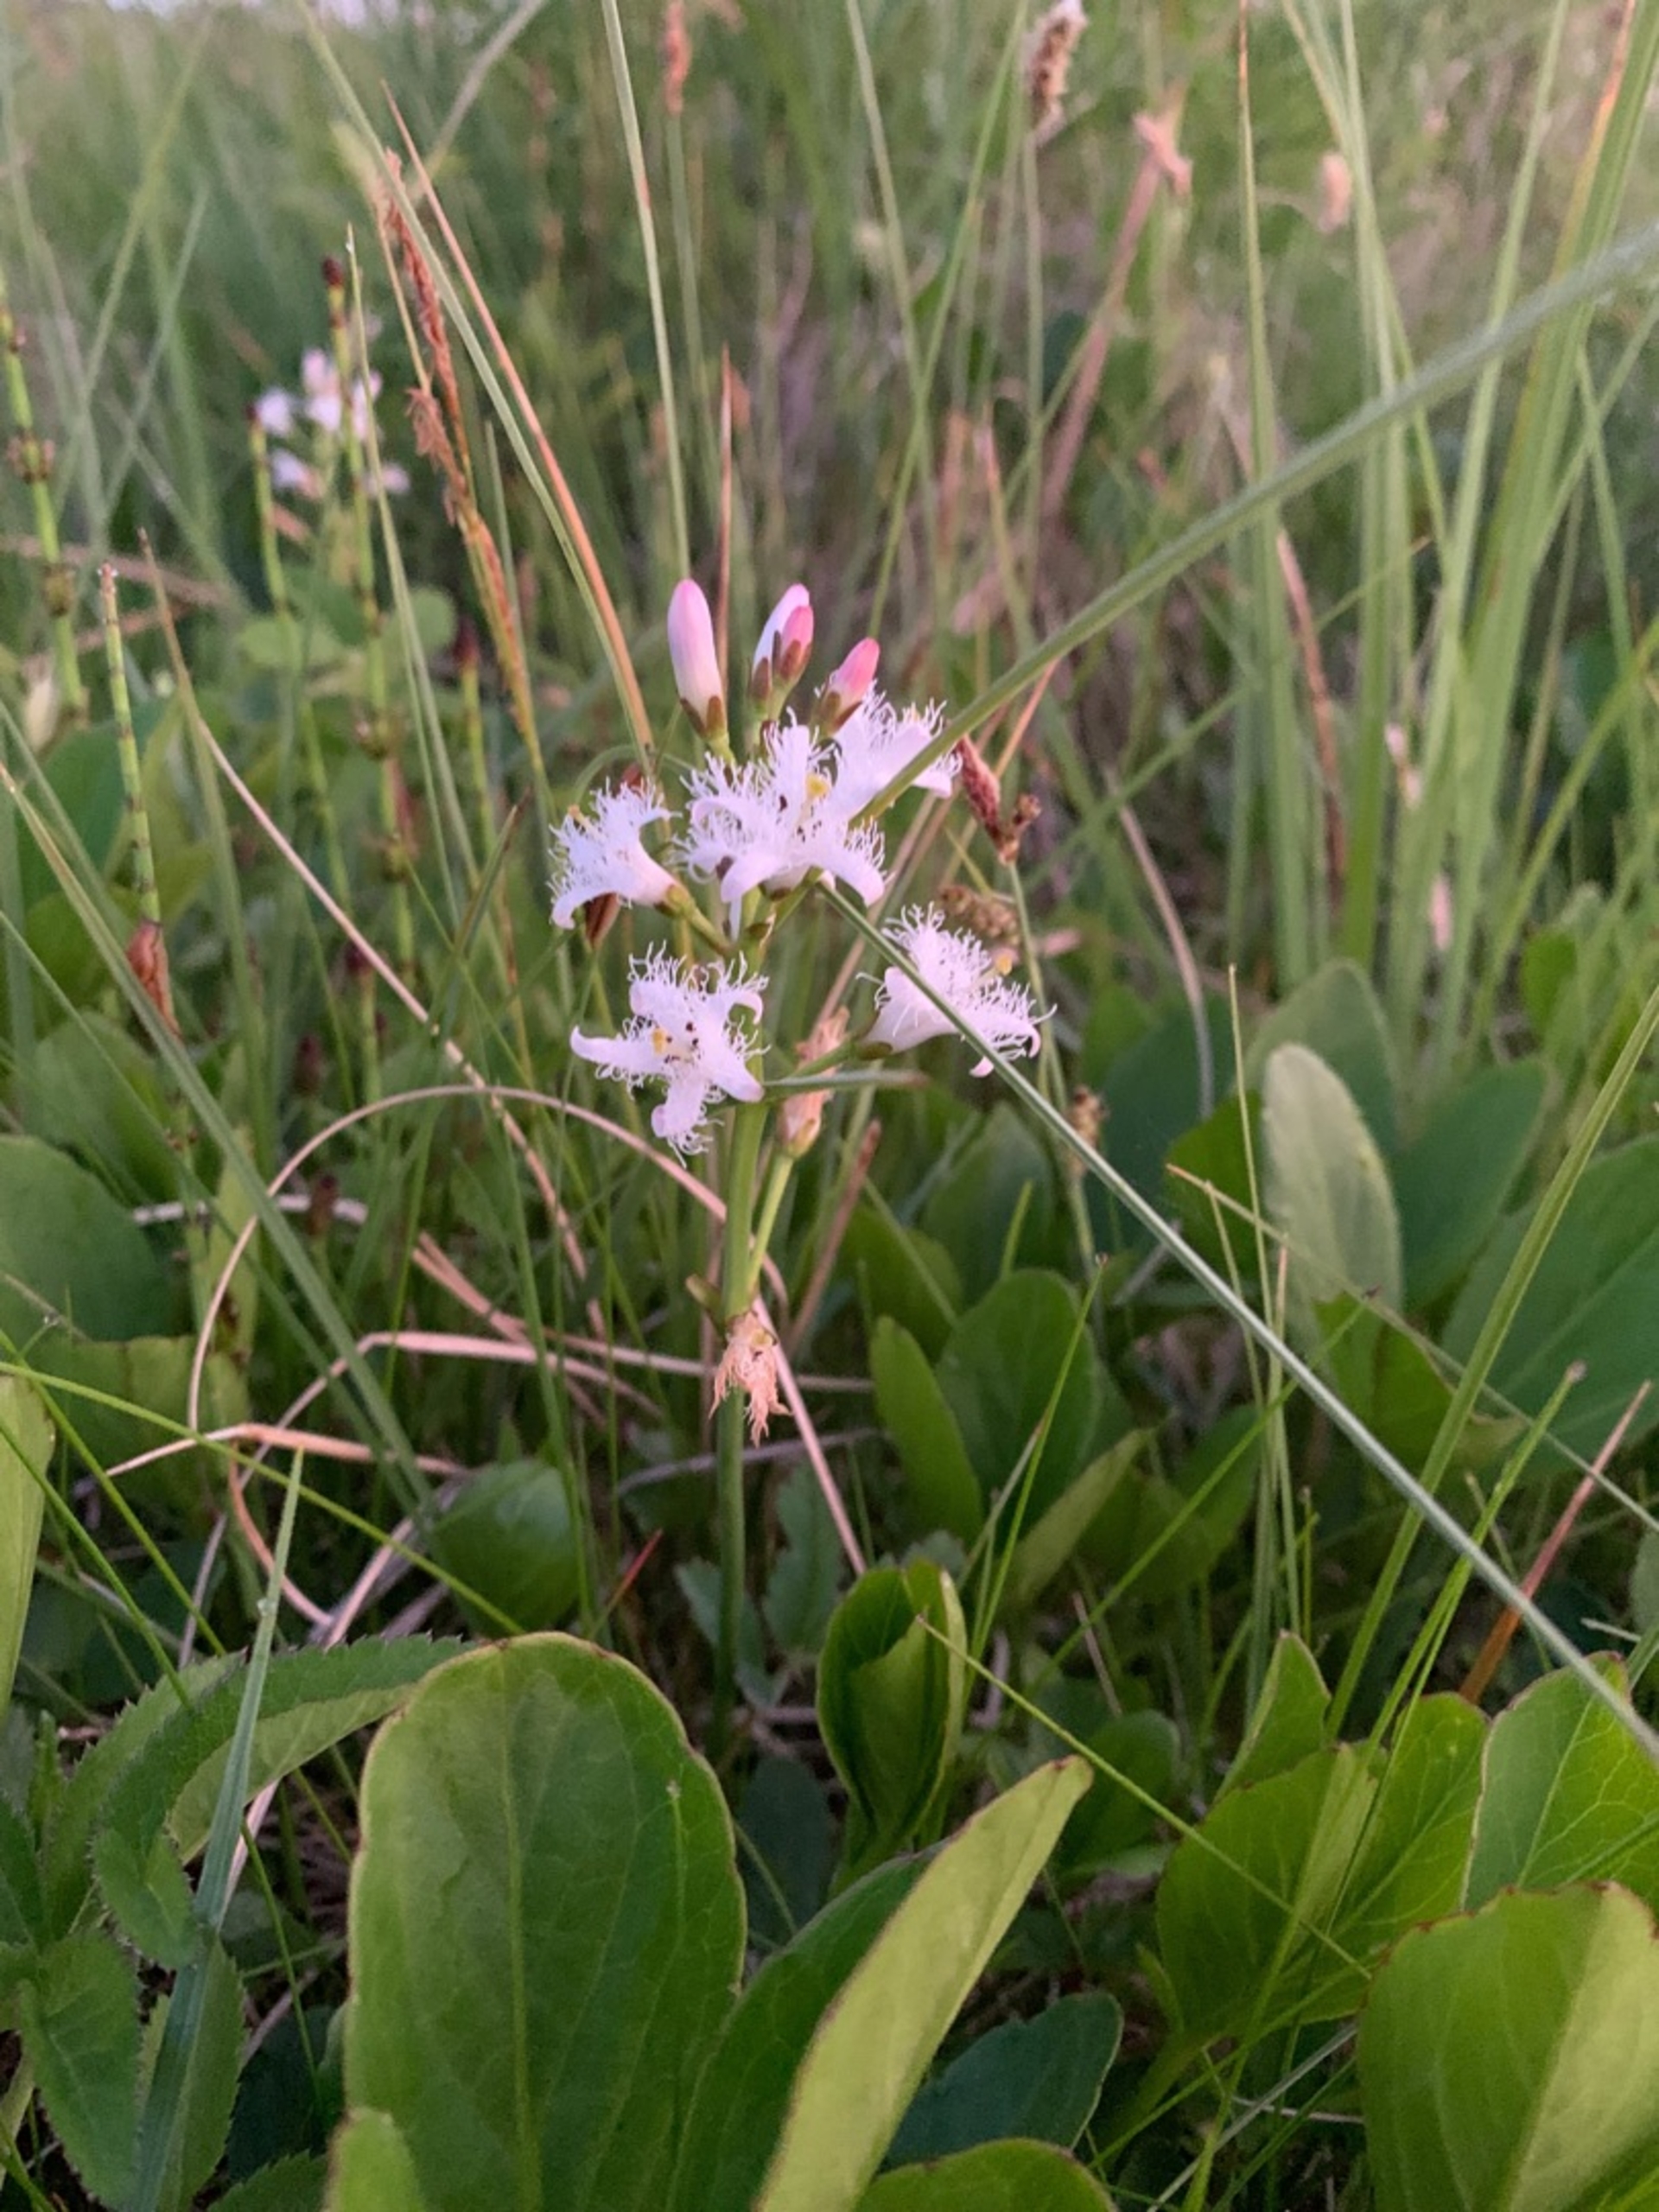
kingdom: Plantae
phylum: Tracheophyta
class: Magnoliopsida
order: Asterales
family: Menyanthaceae
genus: Menyanthes
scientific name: Menyanthes trifoliata
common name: Bukkeblad
